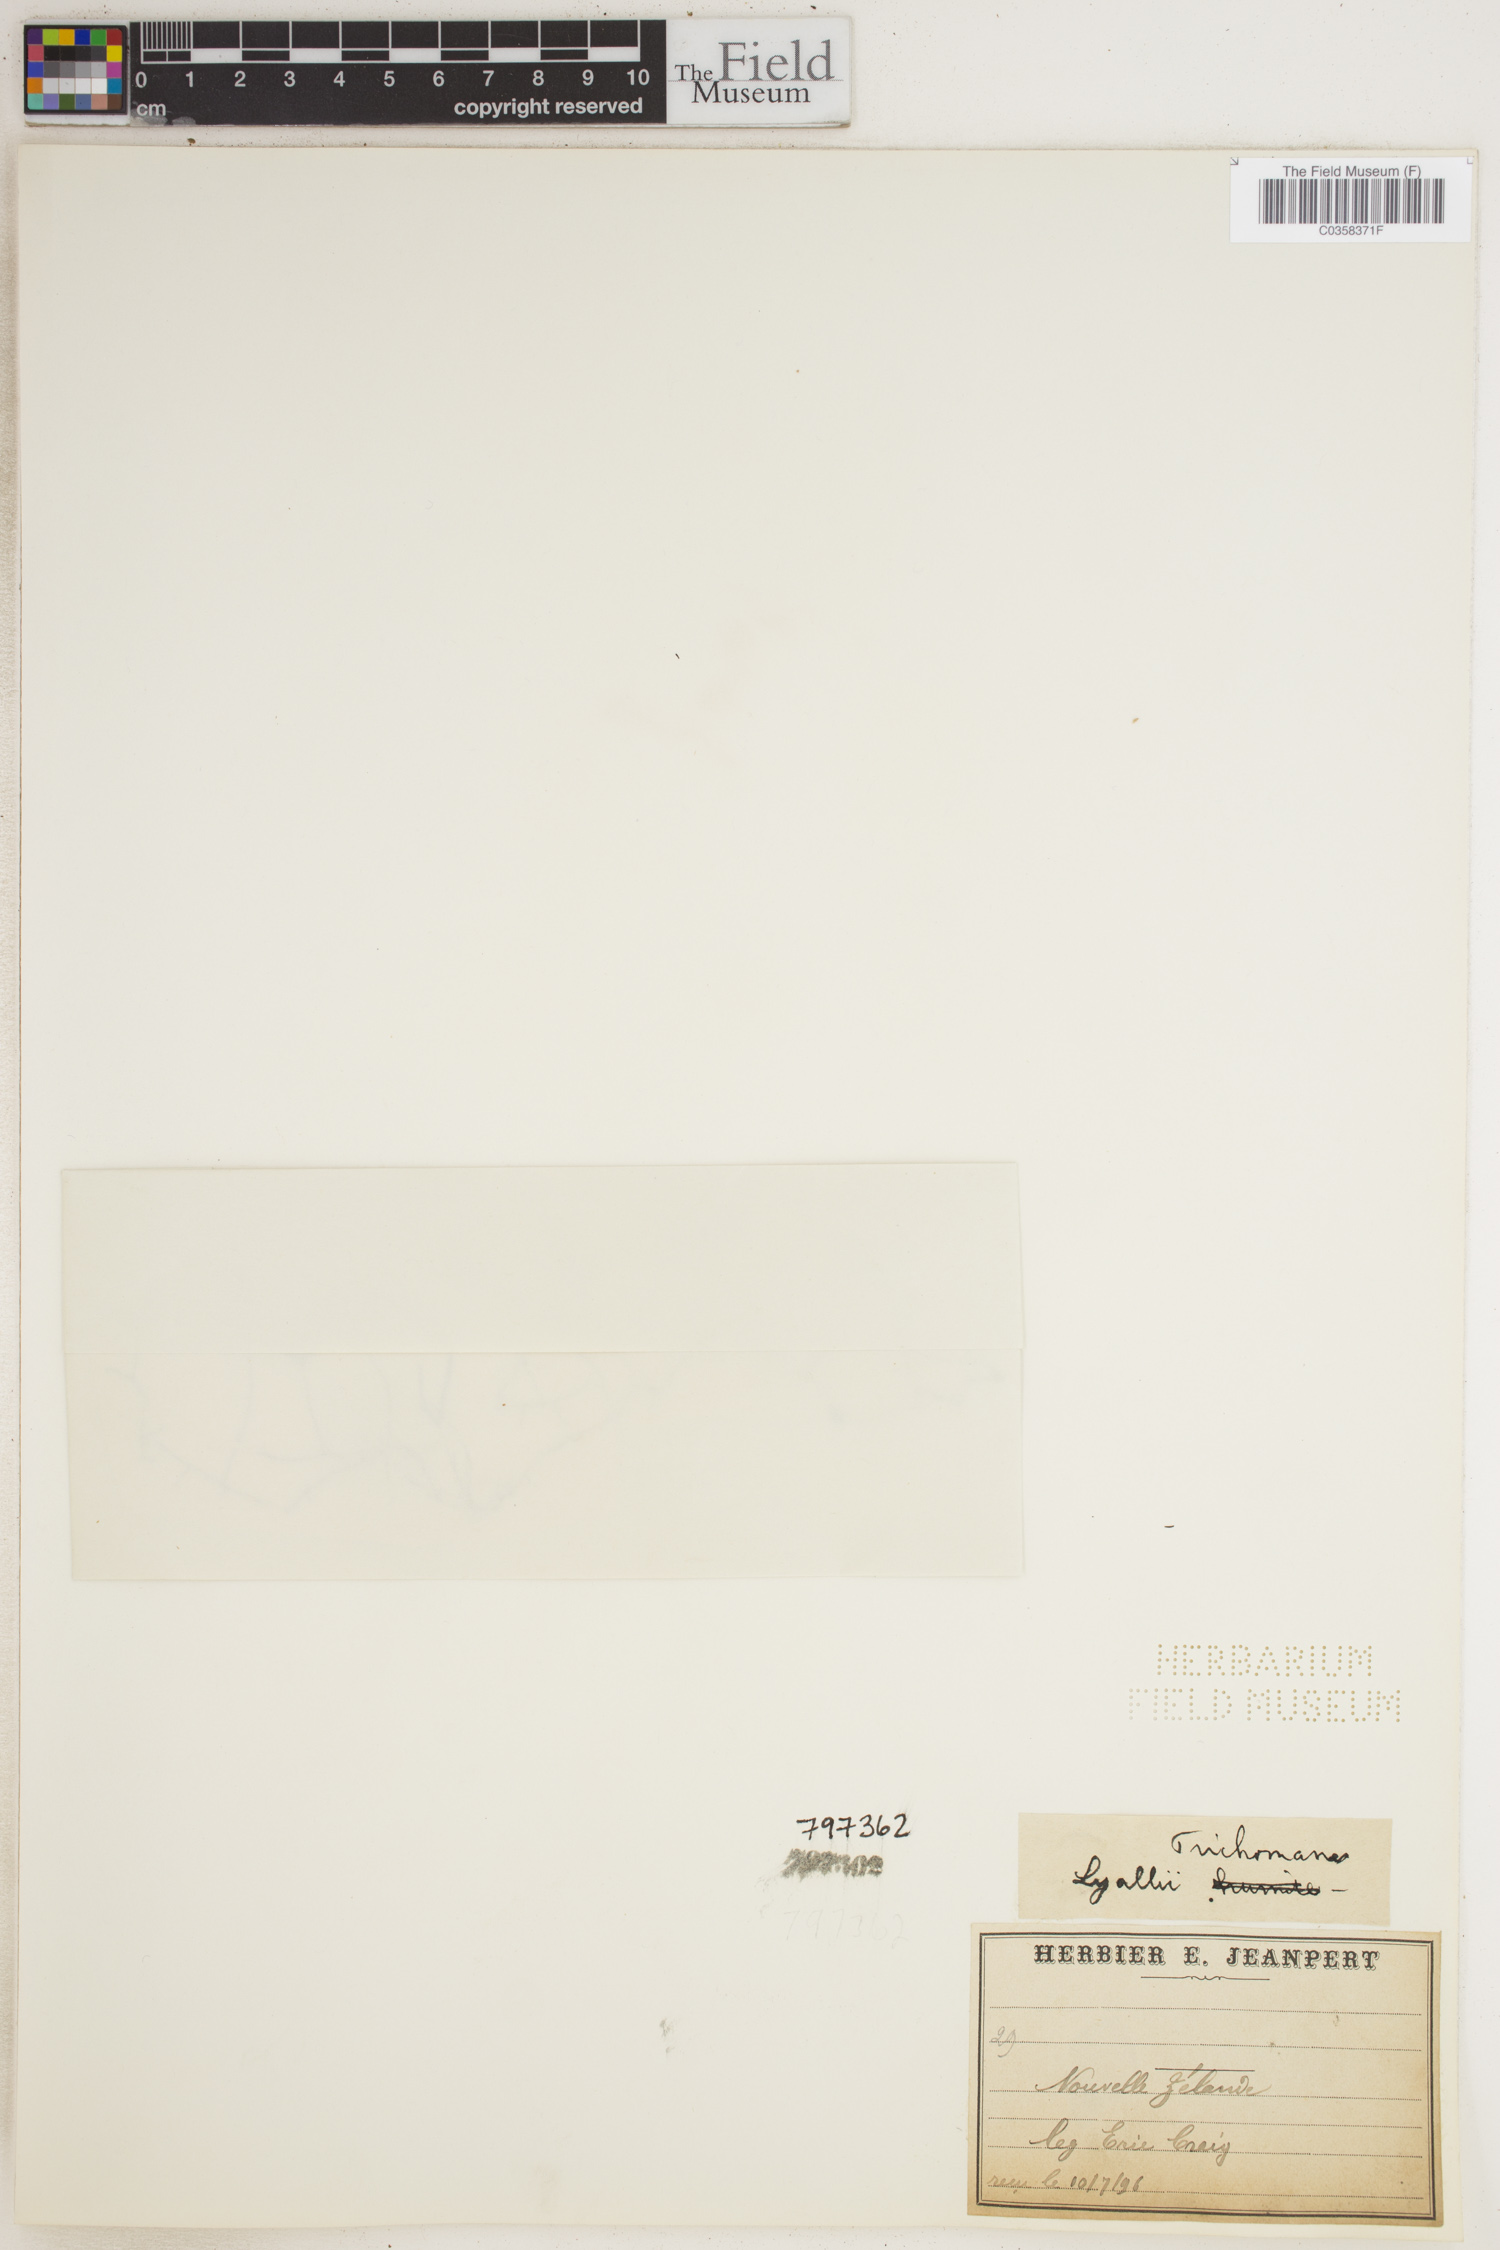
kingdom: Plantae
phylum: Tracheophyta
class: Polypodiopsida
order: Hymenophyllales
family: Hymenophyllaceae
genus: Hymenophyllum
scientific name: Hymenophyllum lyallii
